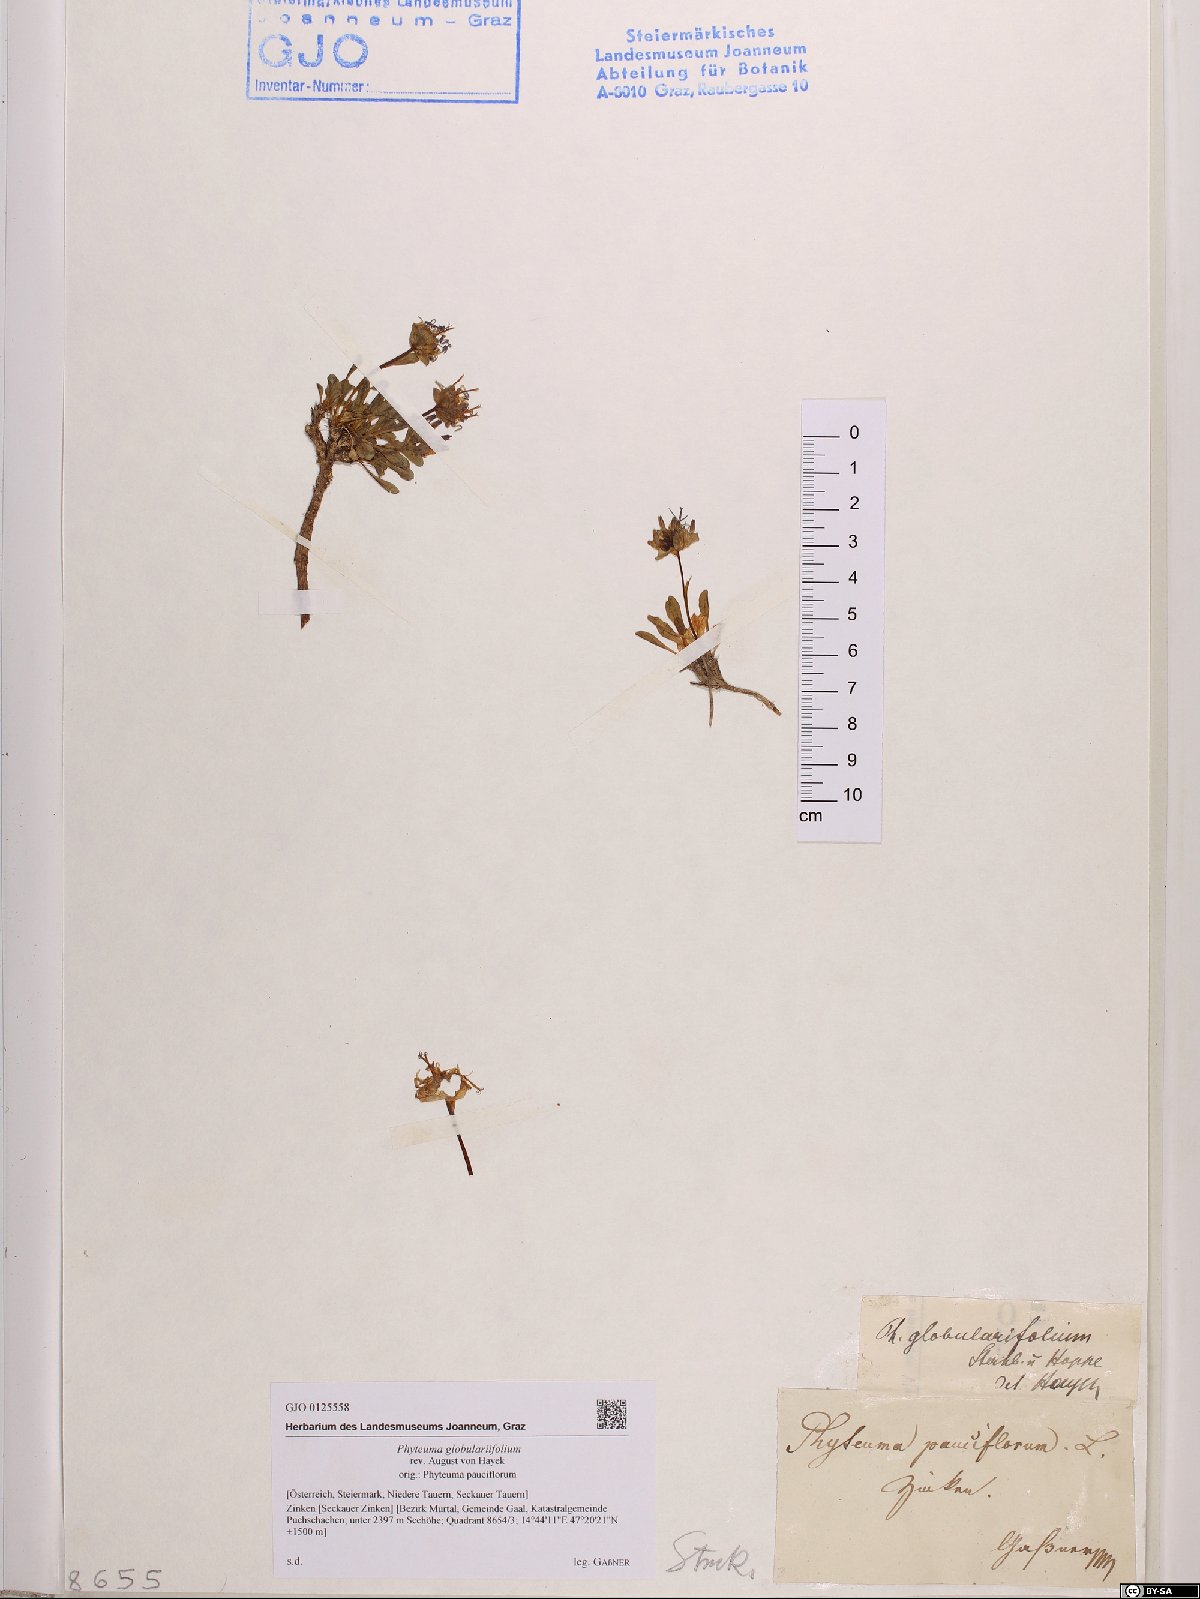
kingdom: Plantae
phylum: Tracheophyta
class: Magnoliopsida
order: Asterales
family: Campanulaceae
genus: Phyteuma
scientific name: Phyteuma globulariifolium
